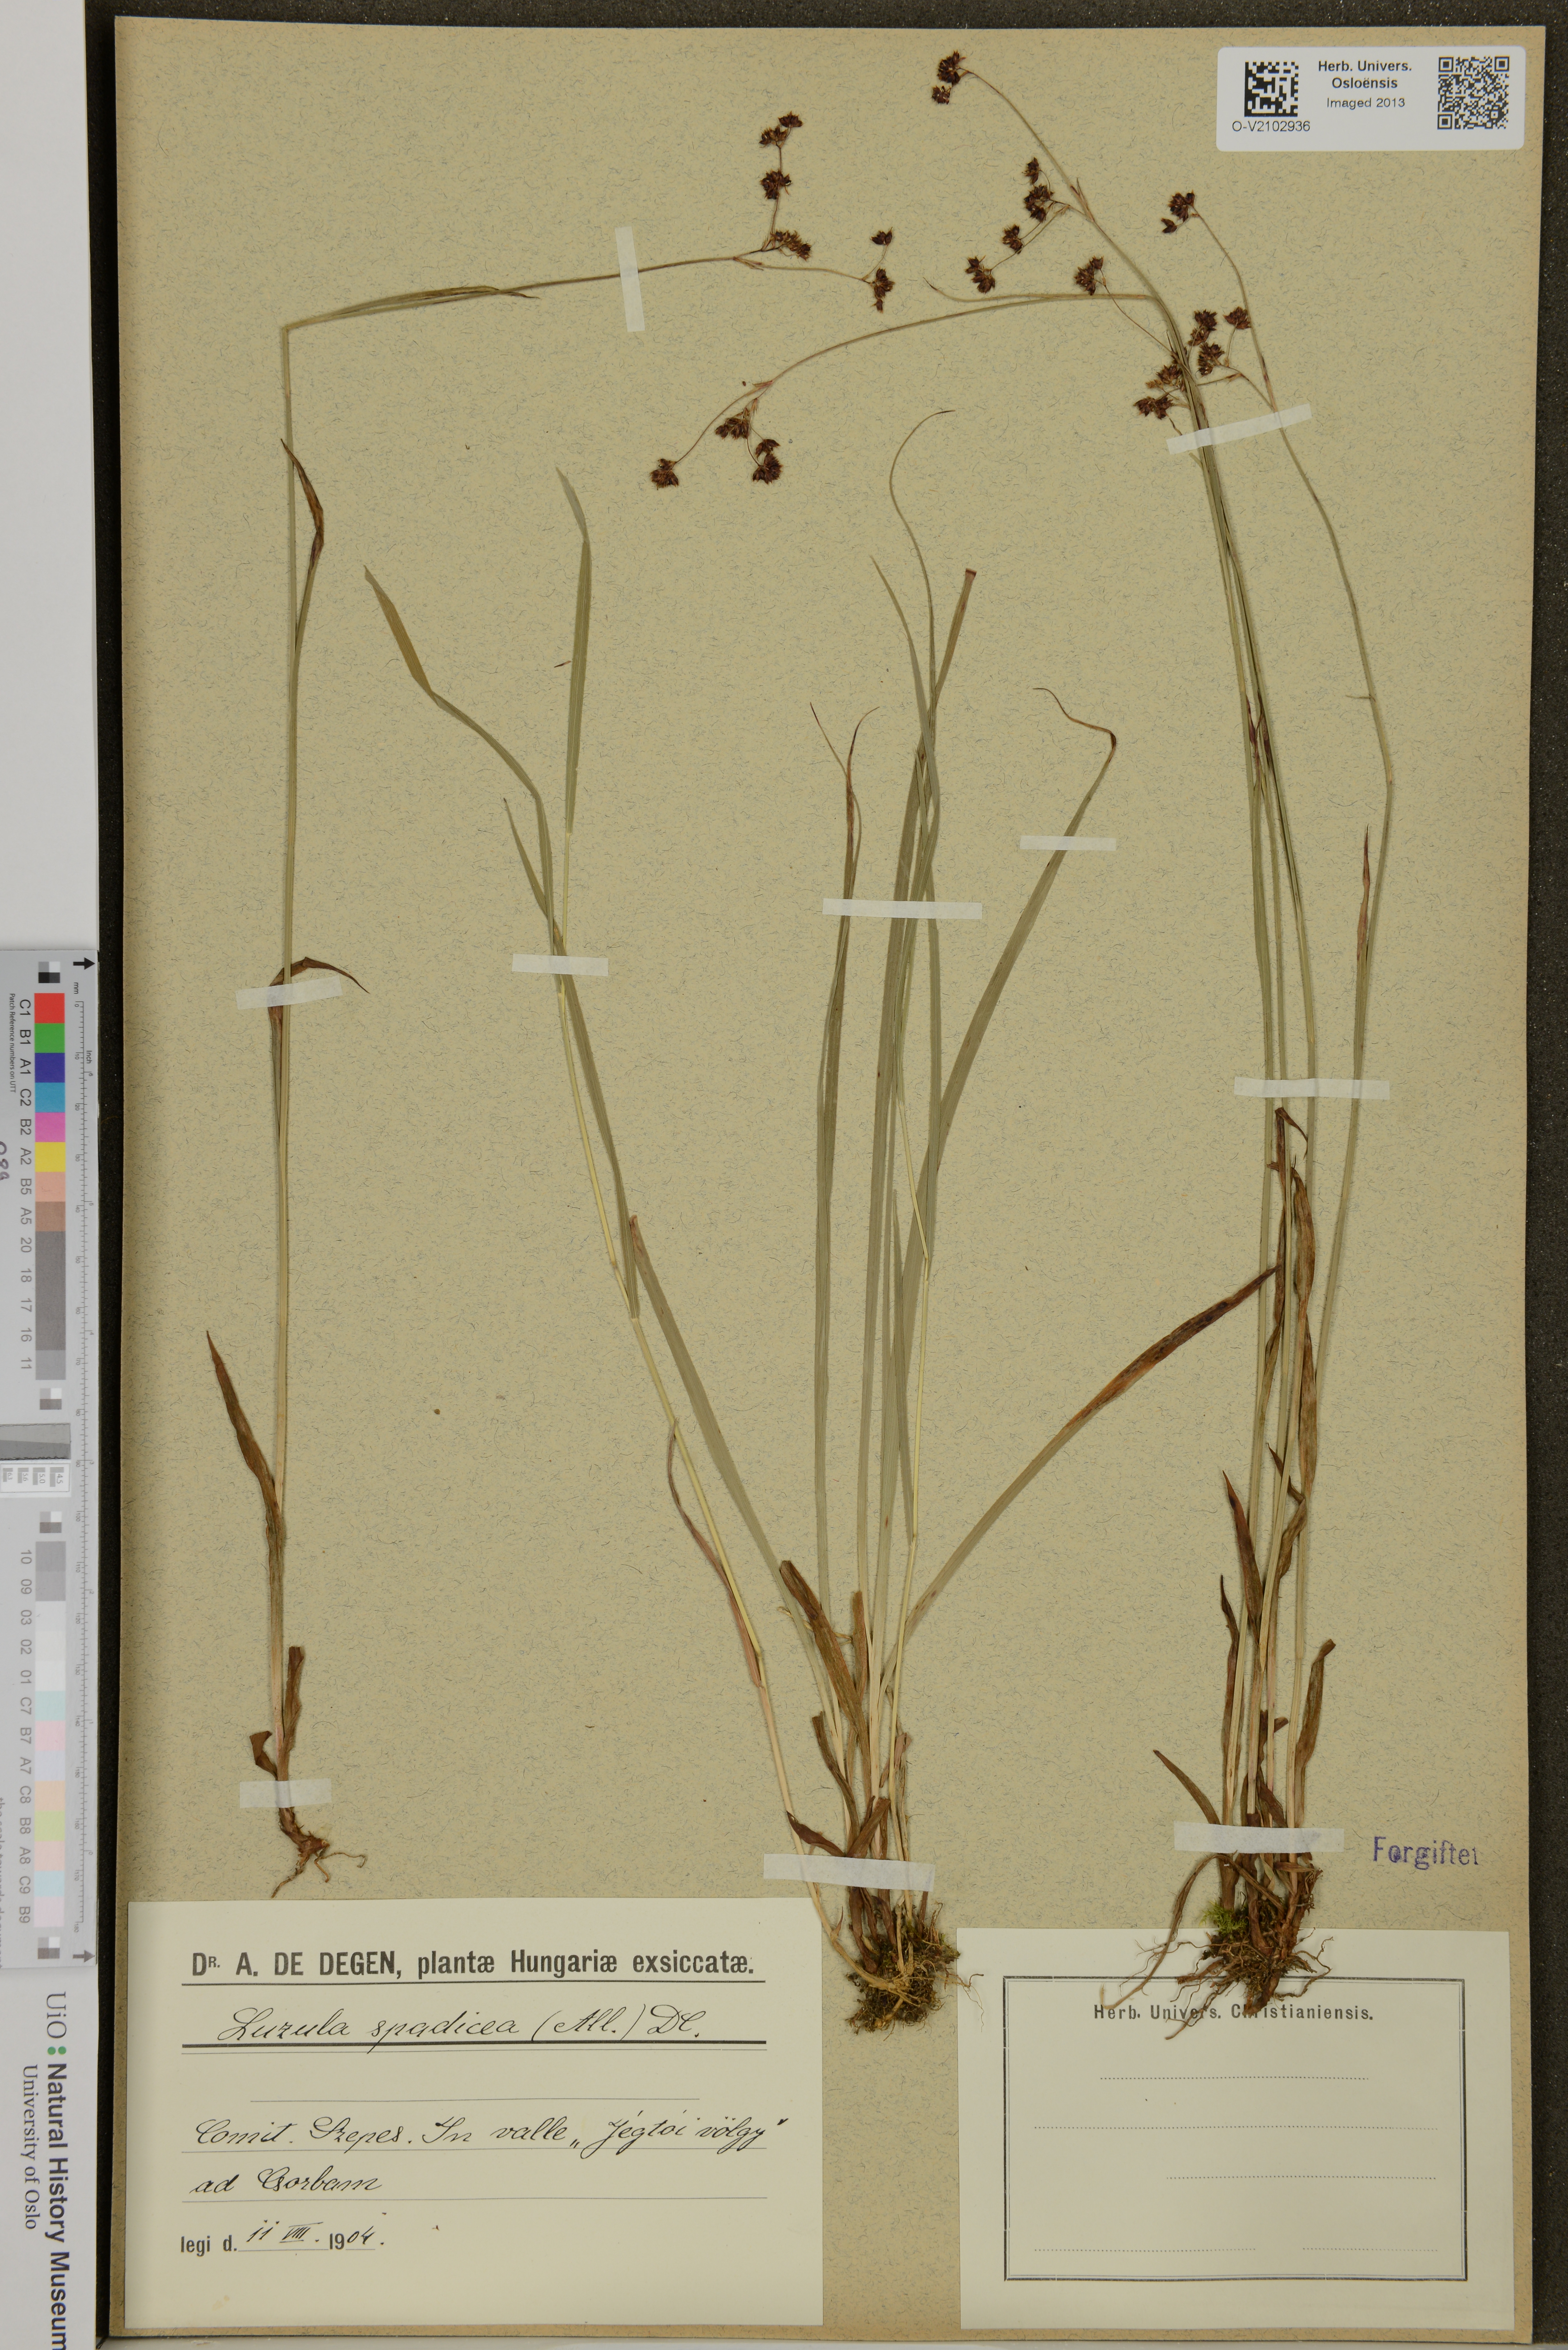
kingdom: Plantae
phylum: Tracheophyta
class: Liliopsida
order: Poales
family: Juncaceae
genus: Luzula
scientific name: Luzula alpinopilosa
